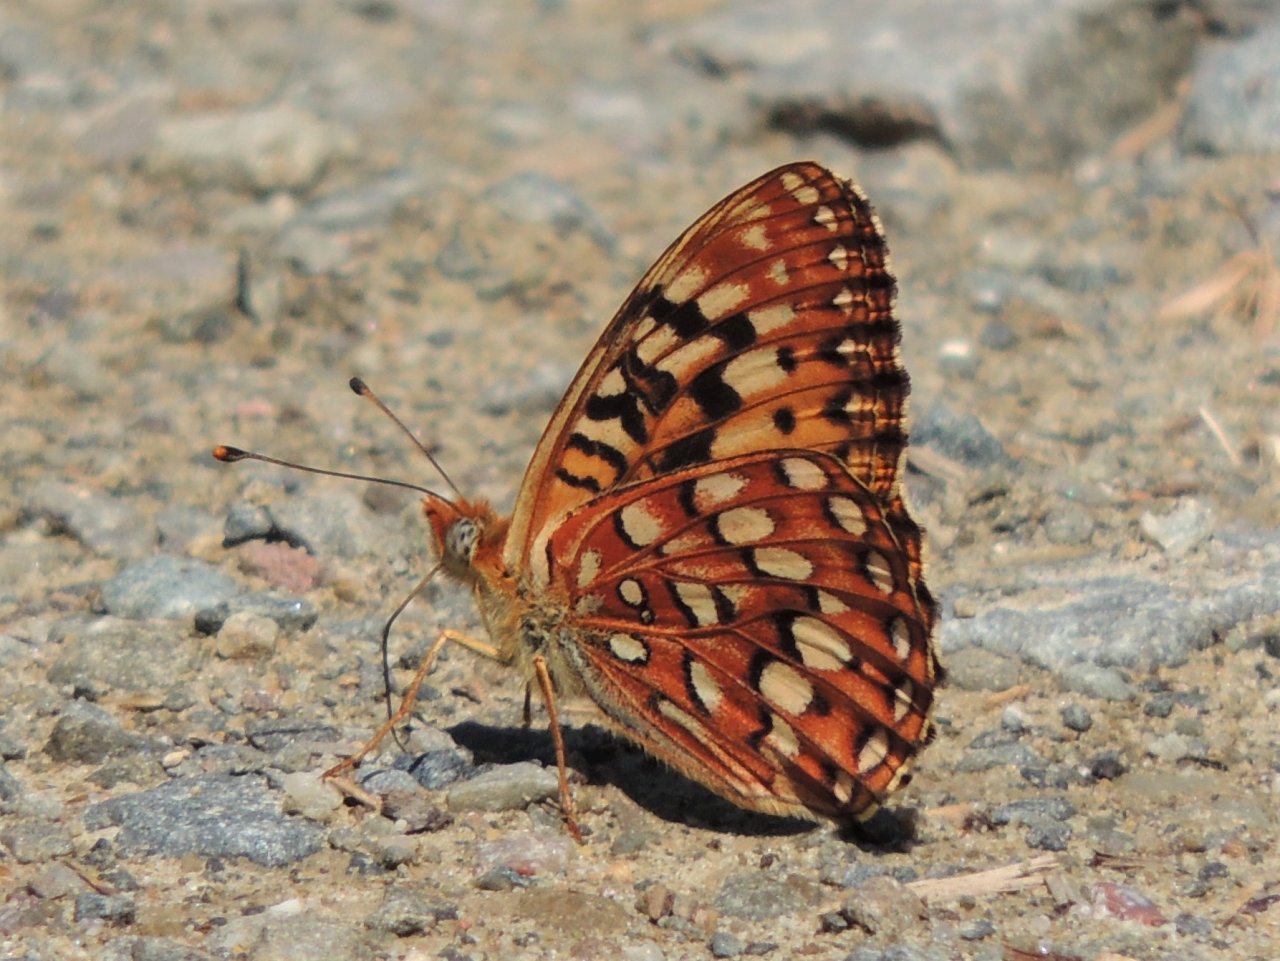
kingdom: Animalia
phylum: Arthropoda
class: Insecta
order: Lepidoptera
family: Nymphalidae
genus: Speyeria
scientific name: Speyeria hydaspe
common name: Hydaspe Fritillary
